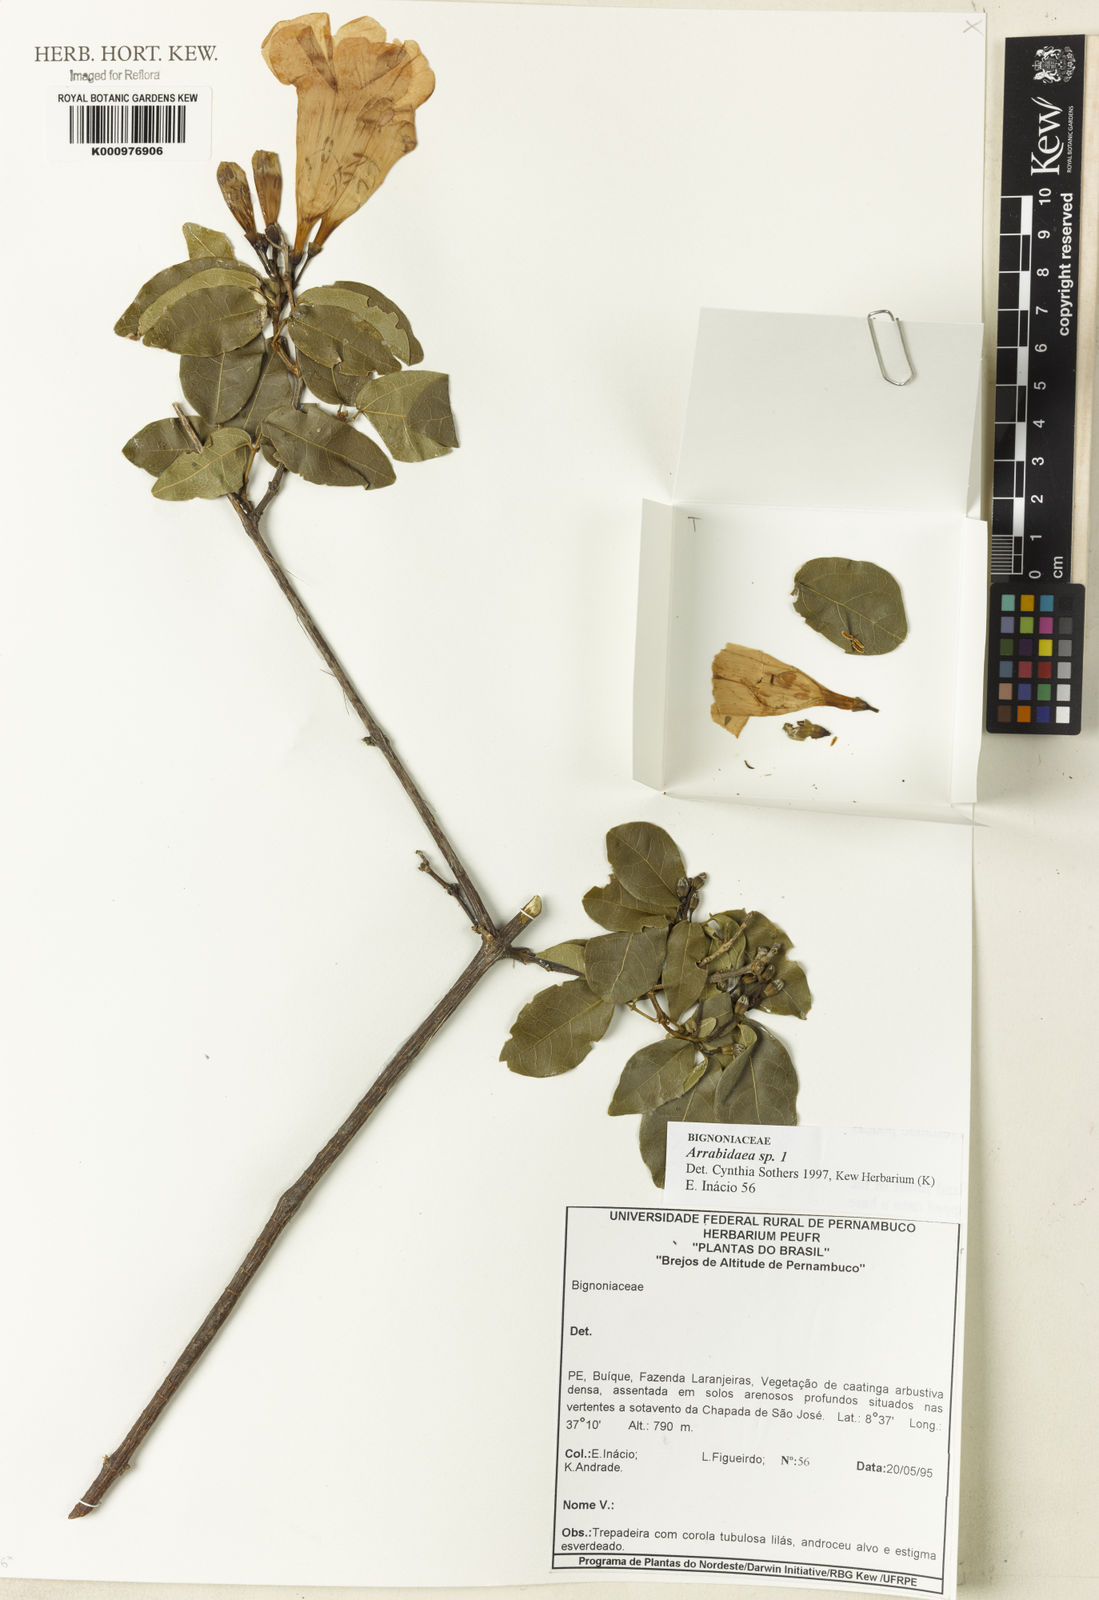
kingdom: Plantae
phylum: Tracheophyta
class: Magnoliopsida
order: Rosales
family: Rhamnaceae
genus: Arrabidaea
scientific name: Arrabidaea
